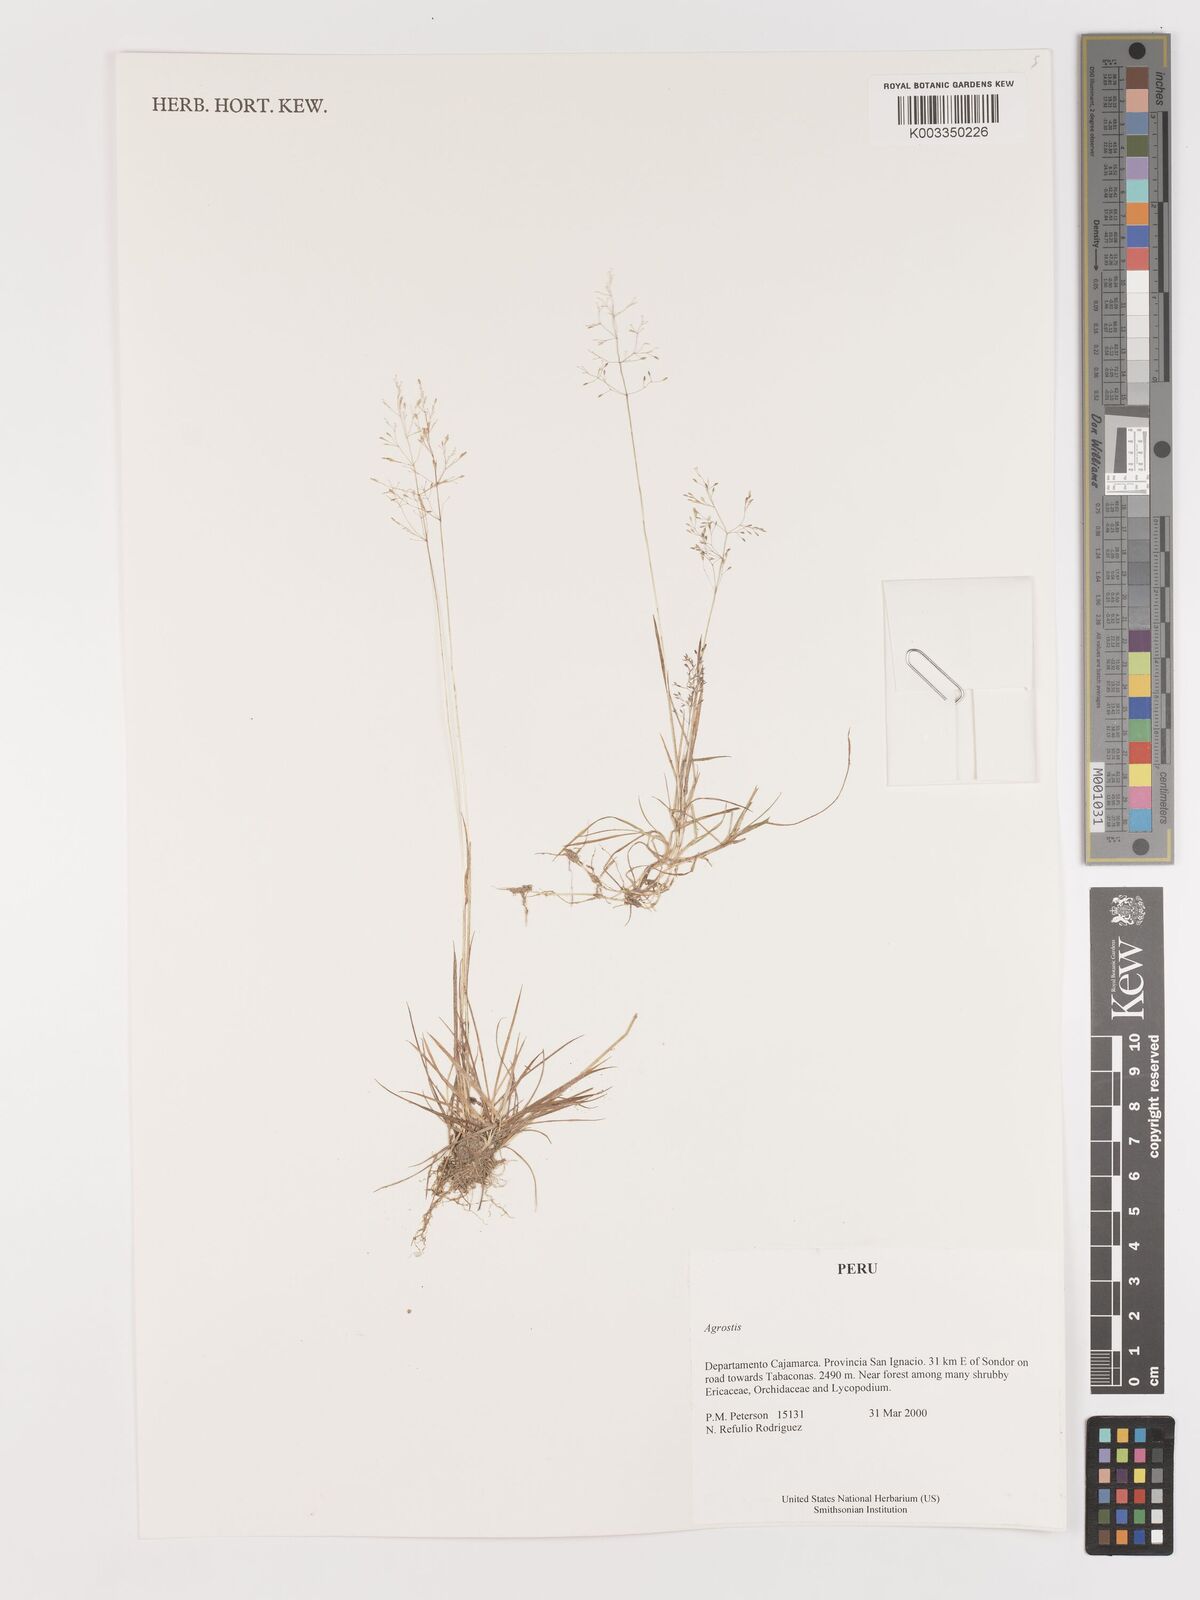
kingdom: Plantae
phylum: Tracheophyta
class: Liliopsida
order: Poales
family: Poaceae
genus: Agrostis
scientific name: Agrostis
